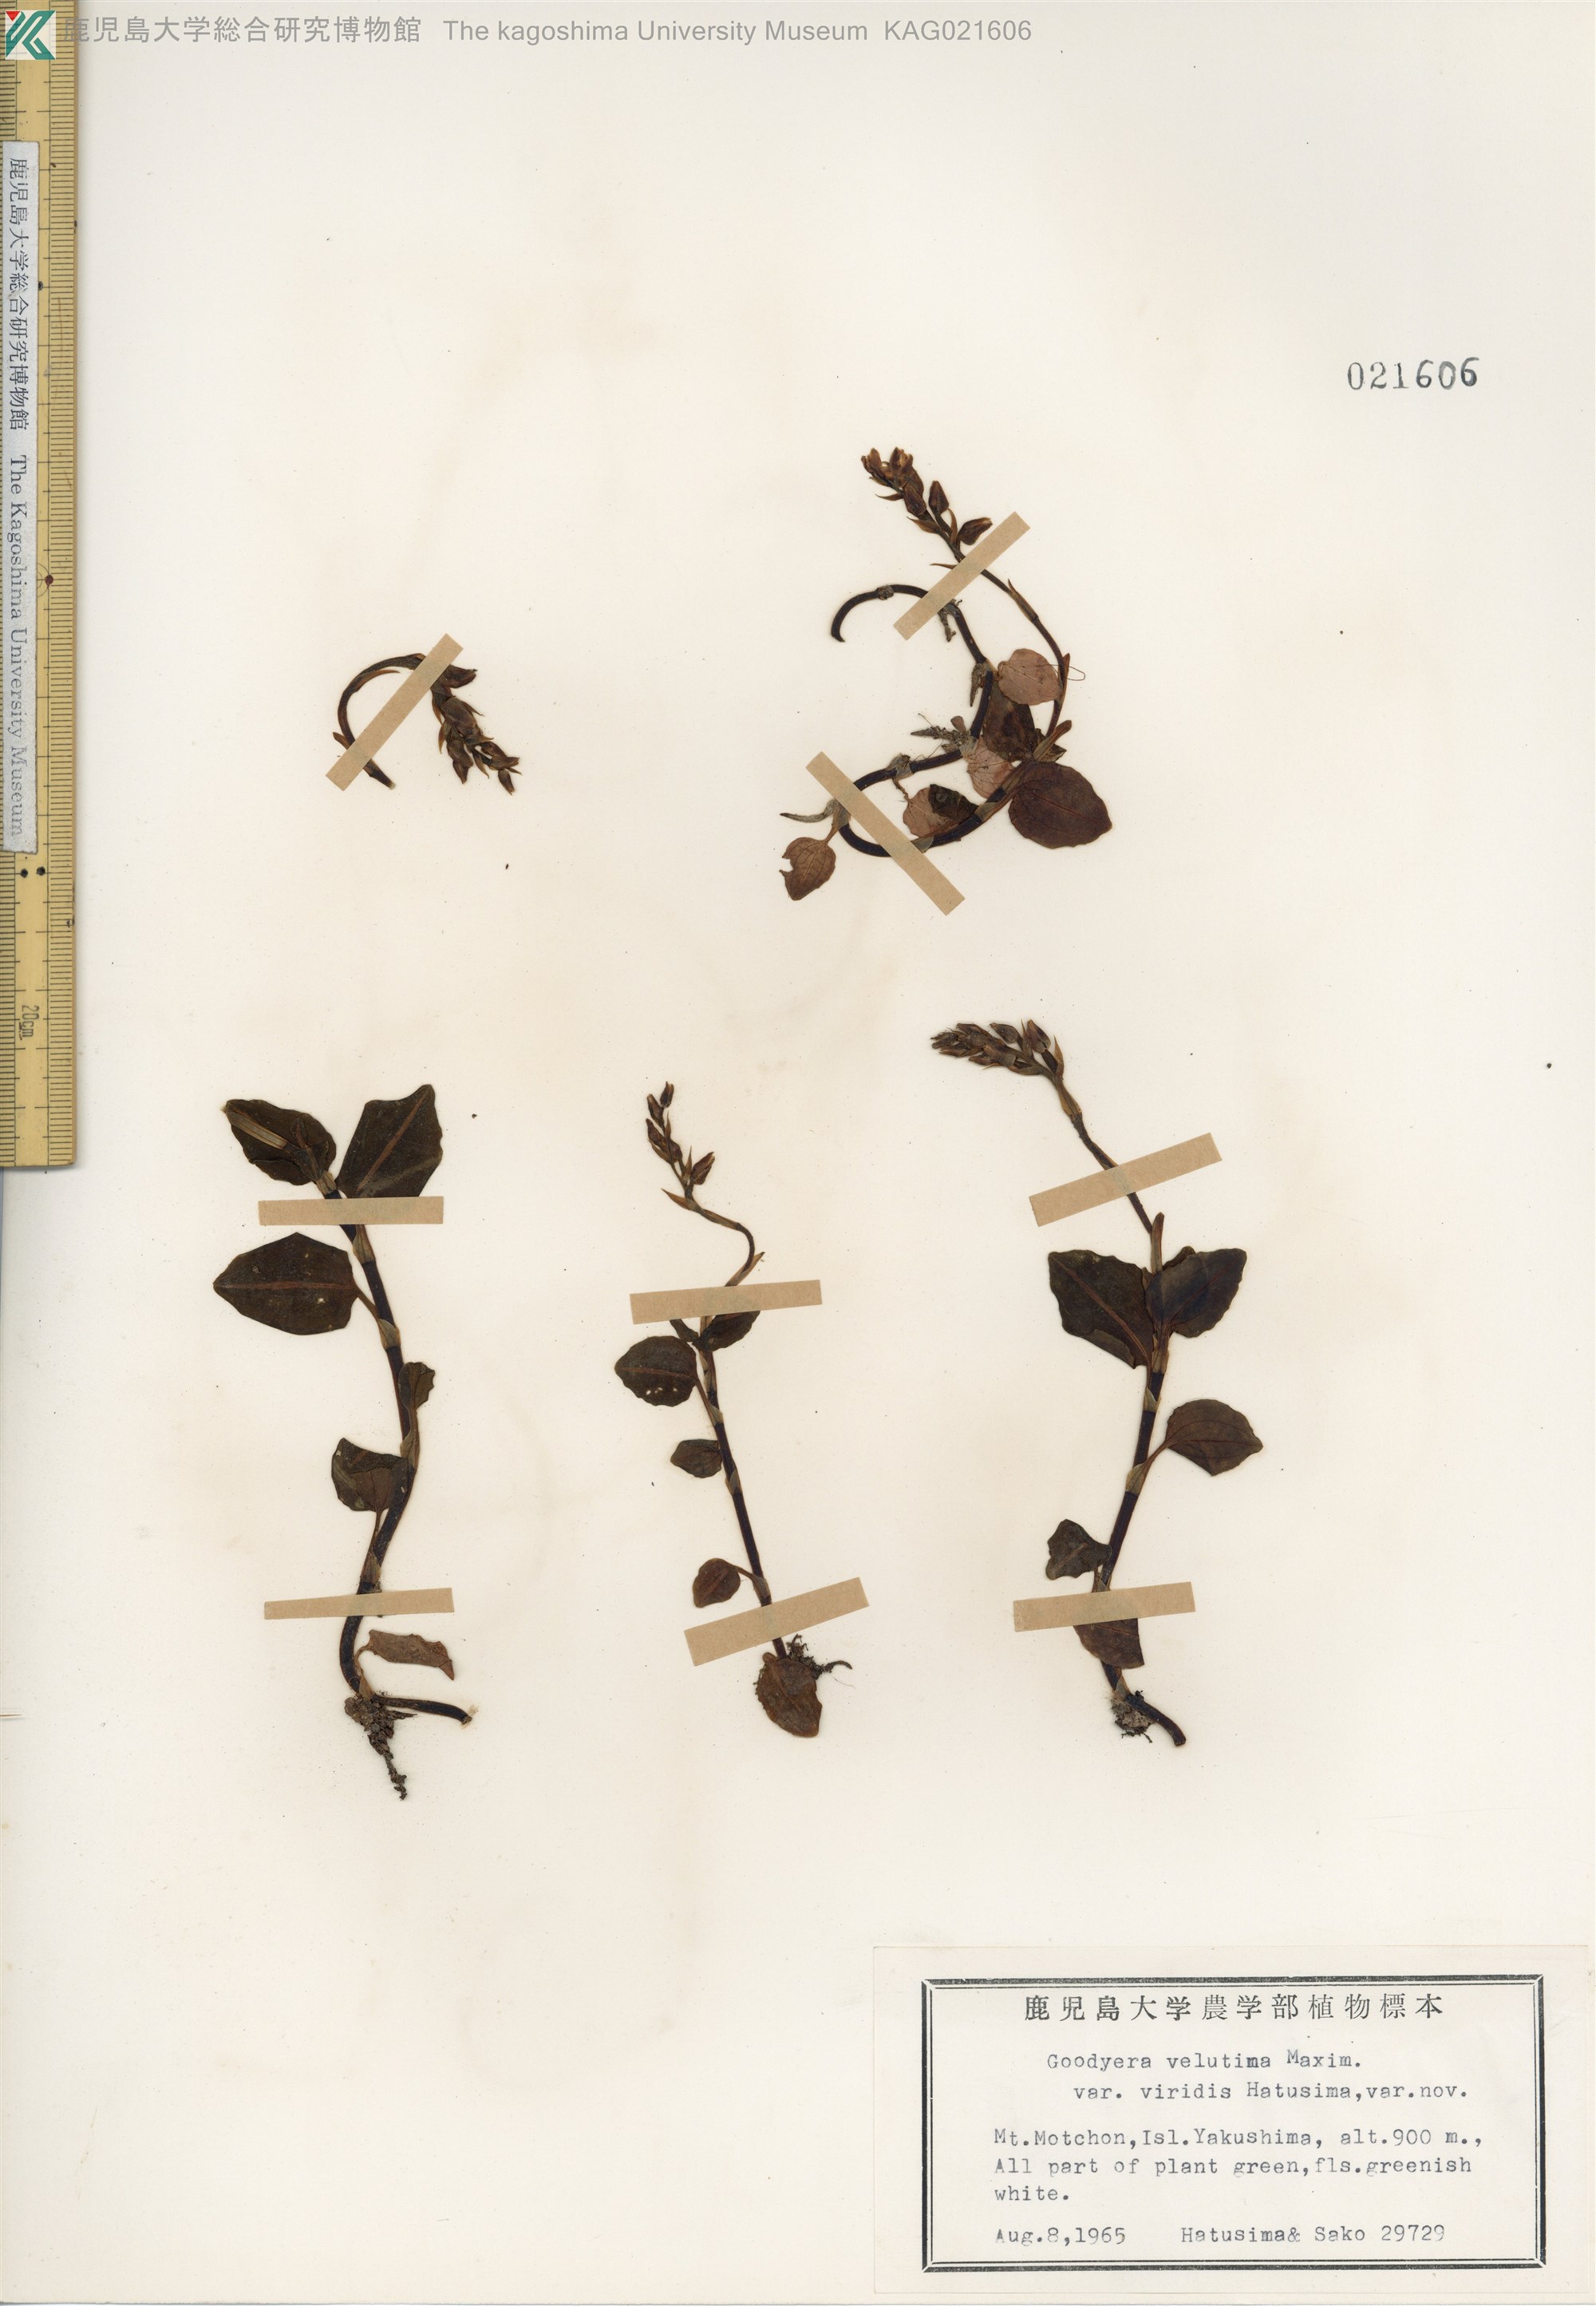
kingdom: Plantae
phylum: Tracheophyta
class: Liliopsida
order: Asparagales
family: Orchidaceae
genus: Goodyera
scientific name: Goodyera velutina
